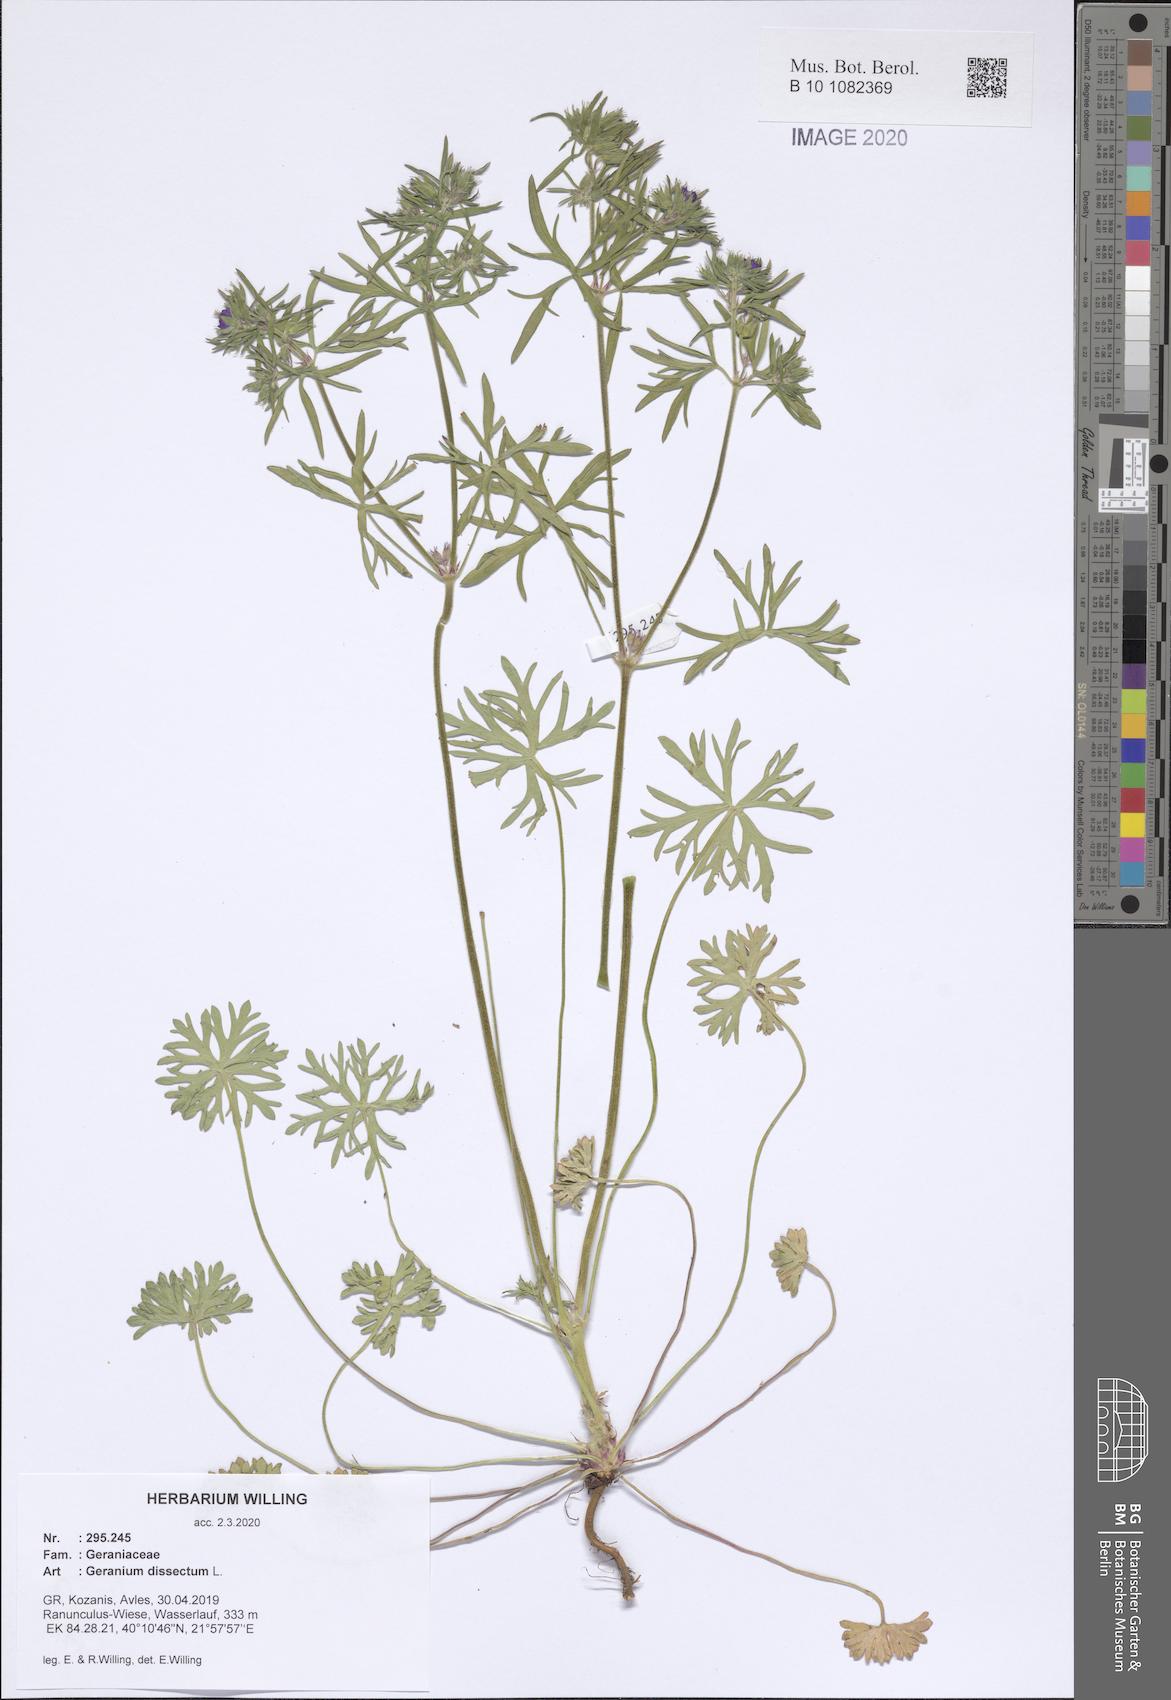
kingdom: Plantae
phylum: Tracheophyta
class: Magnoliopsida
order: Geraniales
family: Geraniaceae
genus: Geranium
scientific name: Geranium dissectum
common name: Cut-leaved crane's-bill
